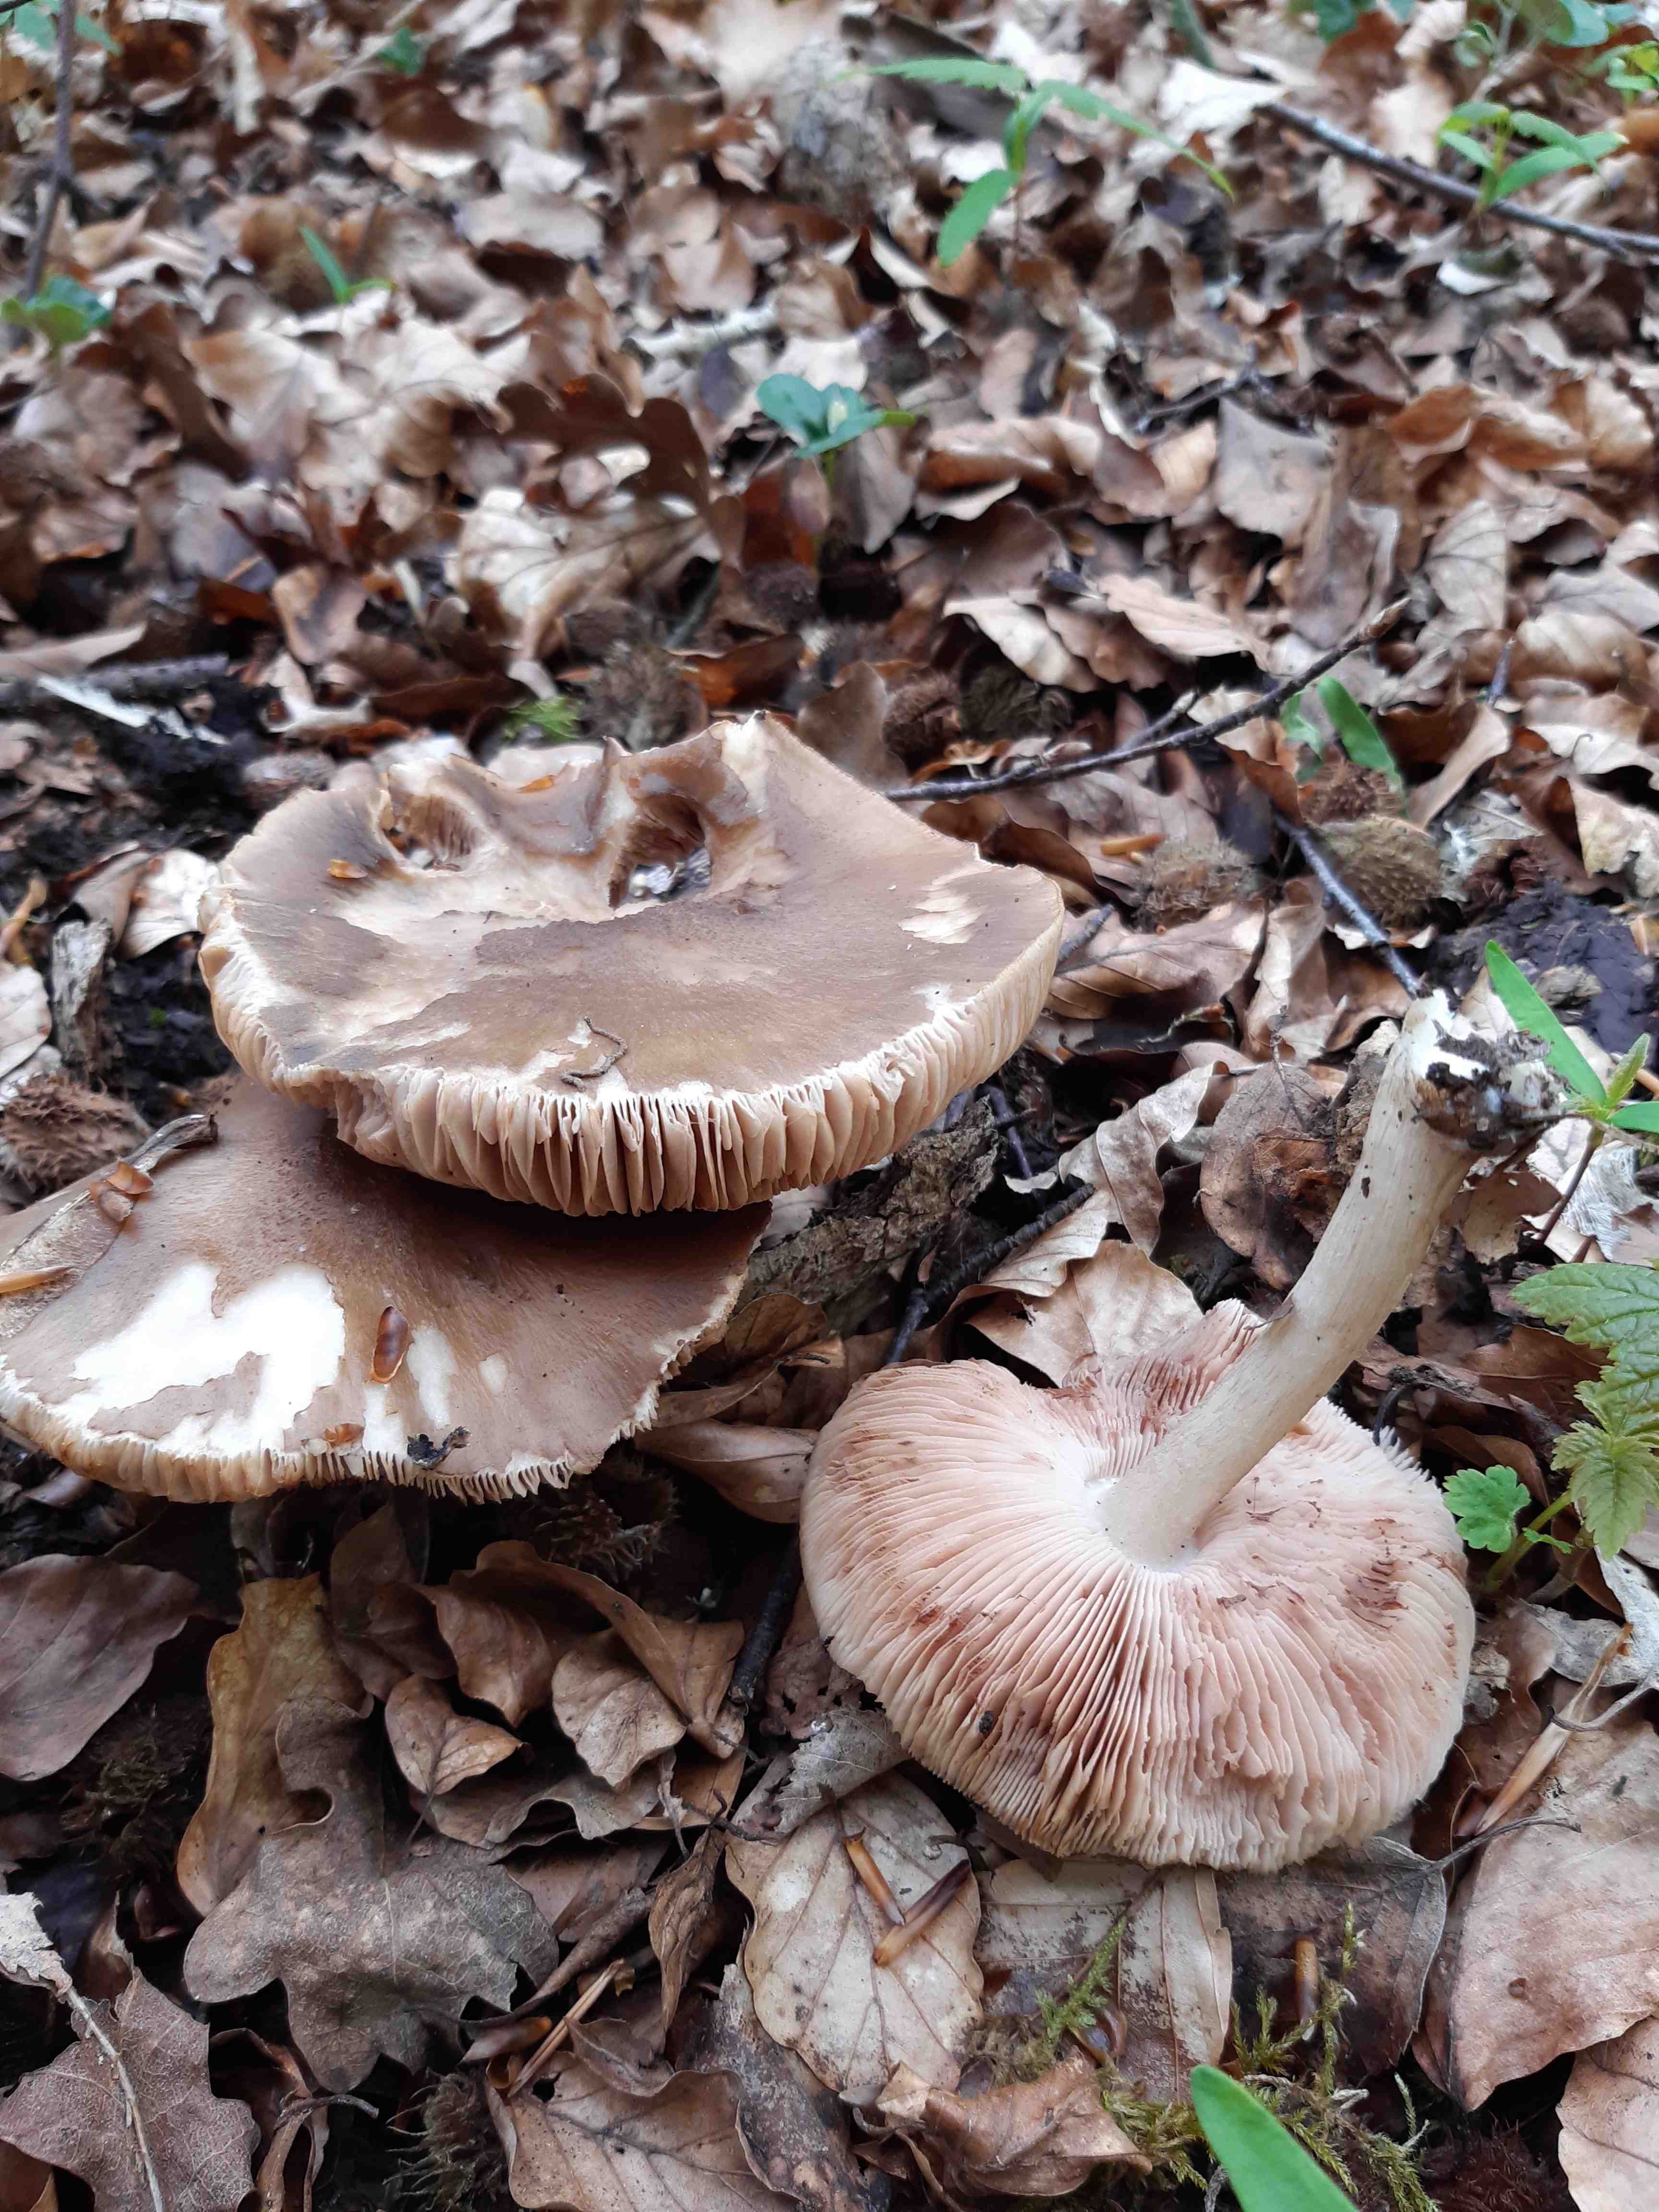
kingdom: Fungi
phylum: Basidiomycota
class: Agaricomycetes
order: Agaricales
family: Pluteaceae
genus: Pluteus
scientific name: Pluteus cervinus
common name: sodfarvet skærmhat
